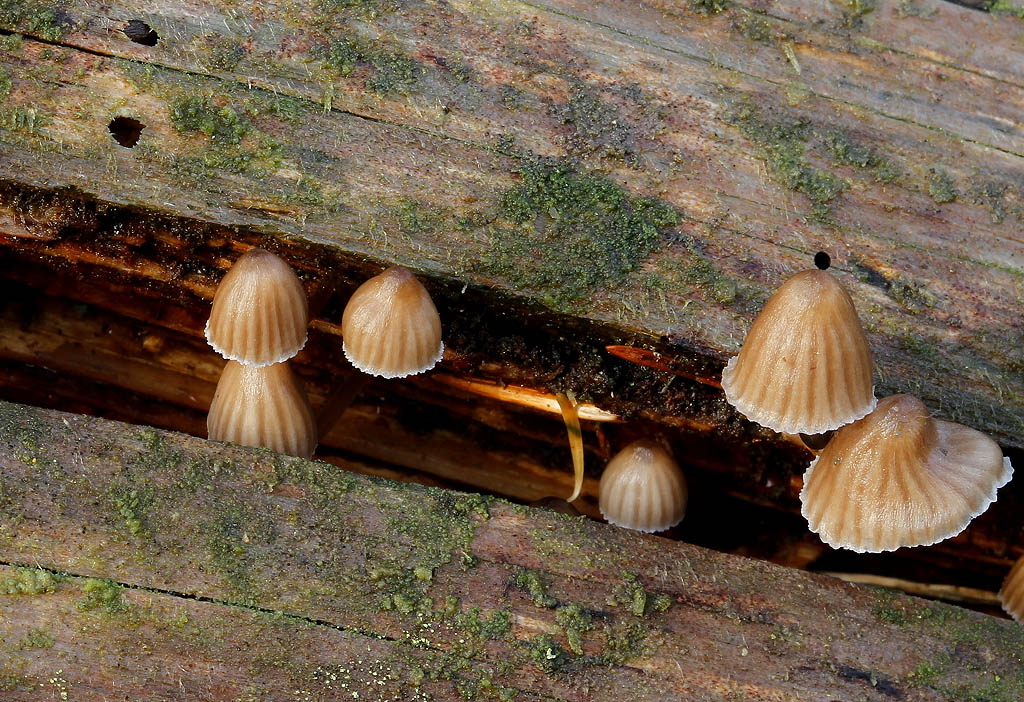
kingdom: Fungi
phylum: Basidiomycota
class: Agaricomycetes
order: Agaricales
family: Mycenaceae
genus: Mycena
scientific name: Mycena stipata
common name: stinkende huesvamp
